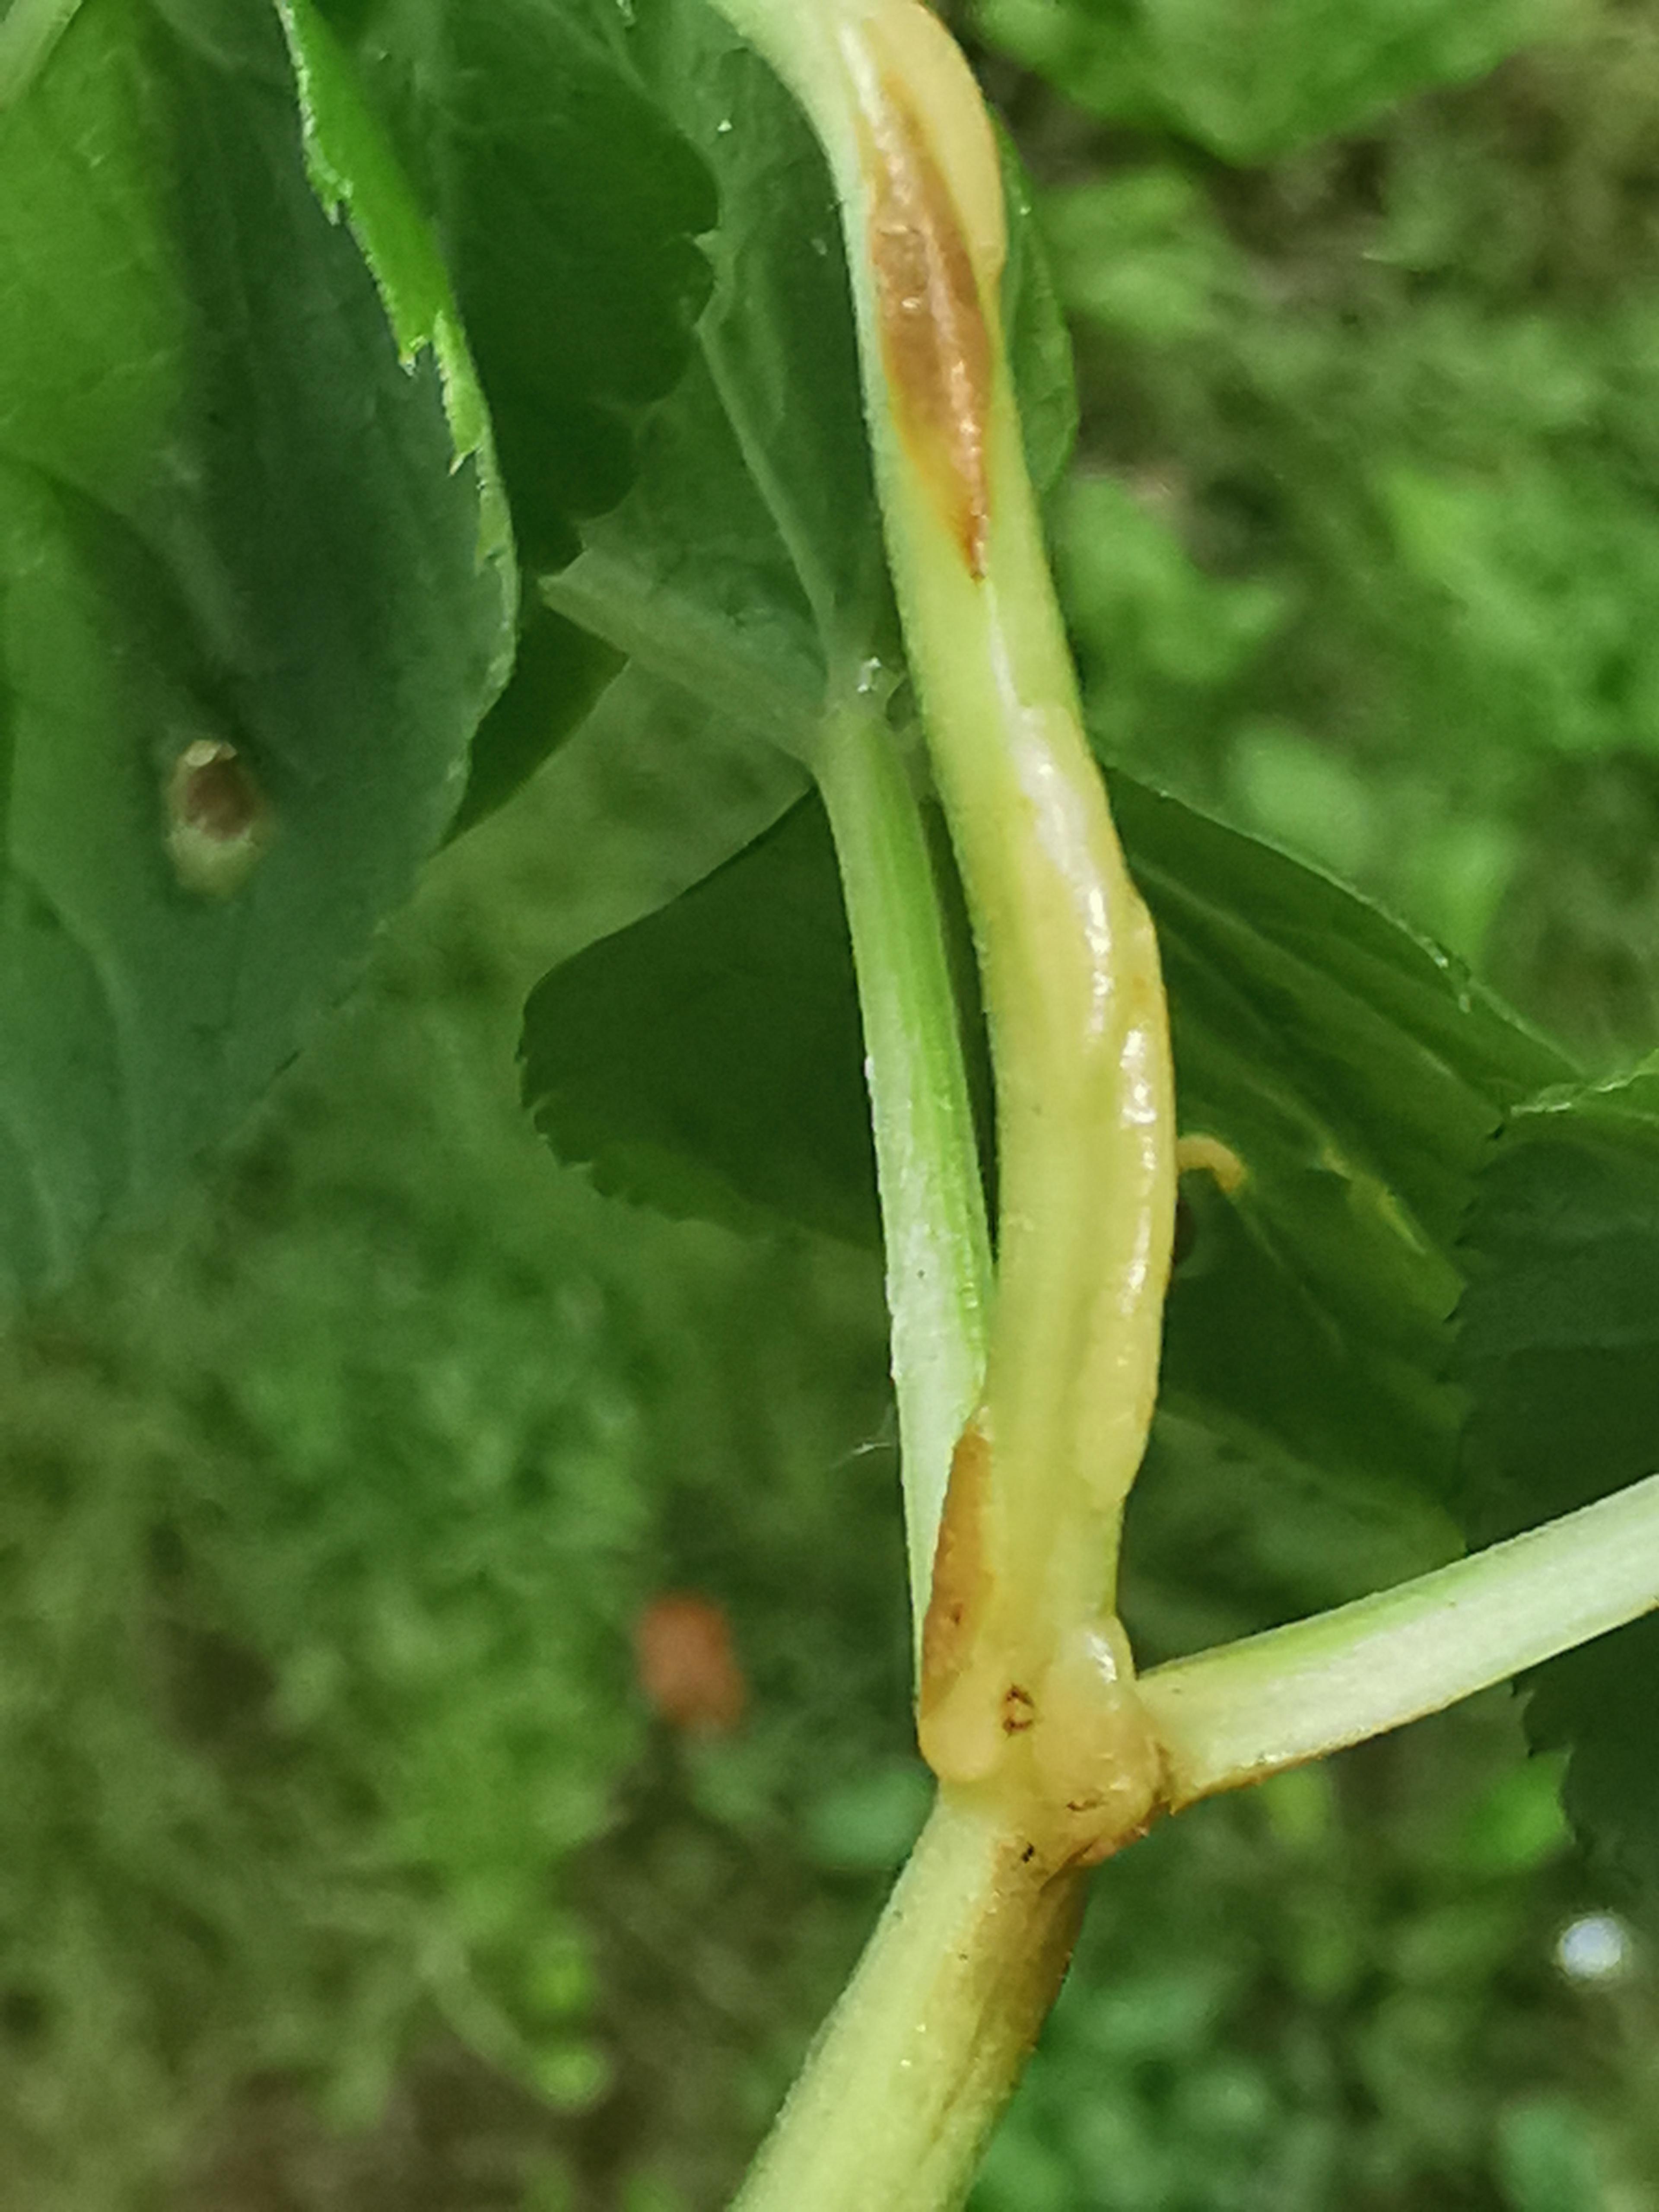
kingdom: Fungi
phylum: Ascomycota
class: Taphrinomycetes
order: Taphrinales
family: Taphrinaceae
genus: Protomyces
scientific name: Protomyces macrosporus
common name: skvalderkål-vablesæk
